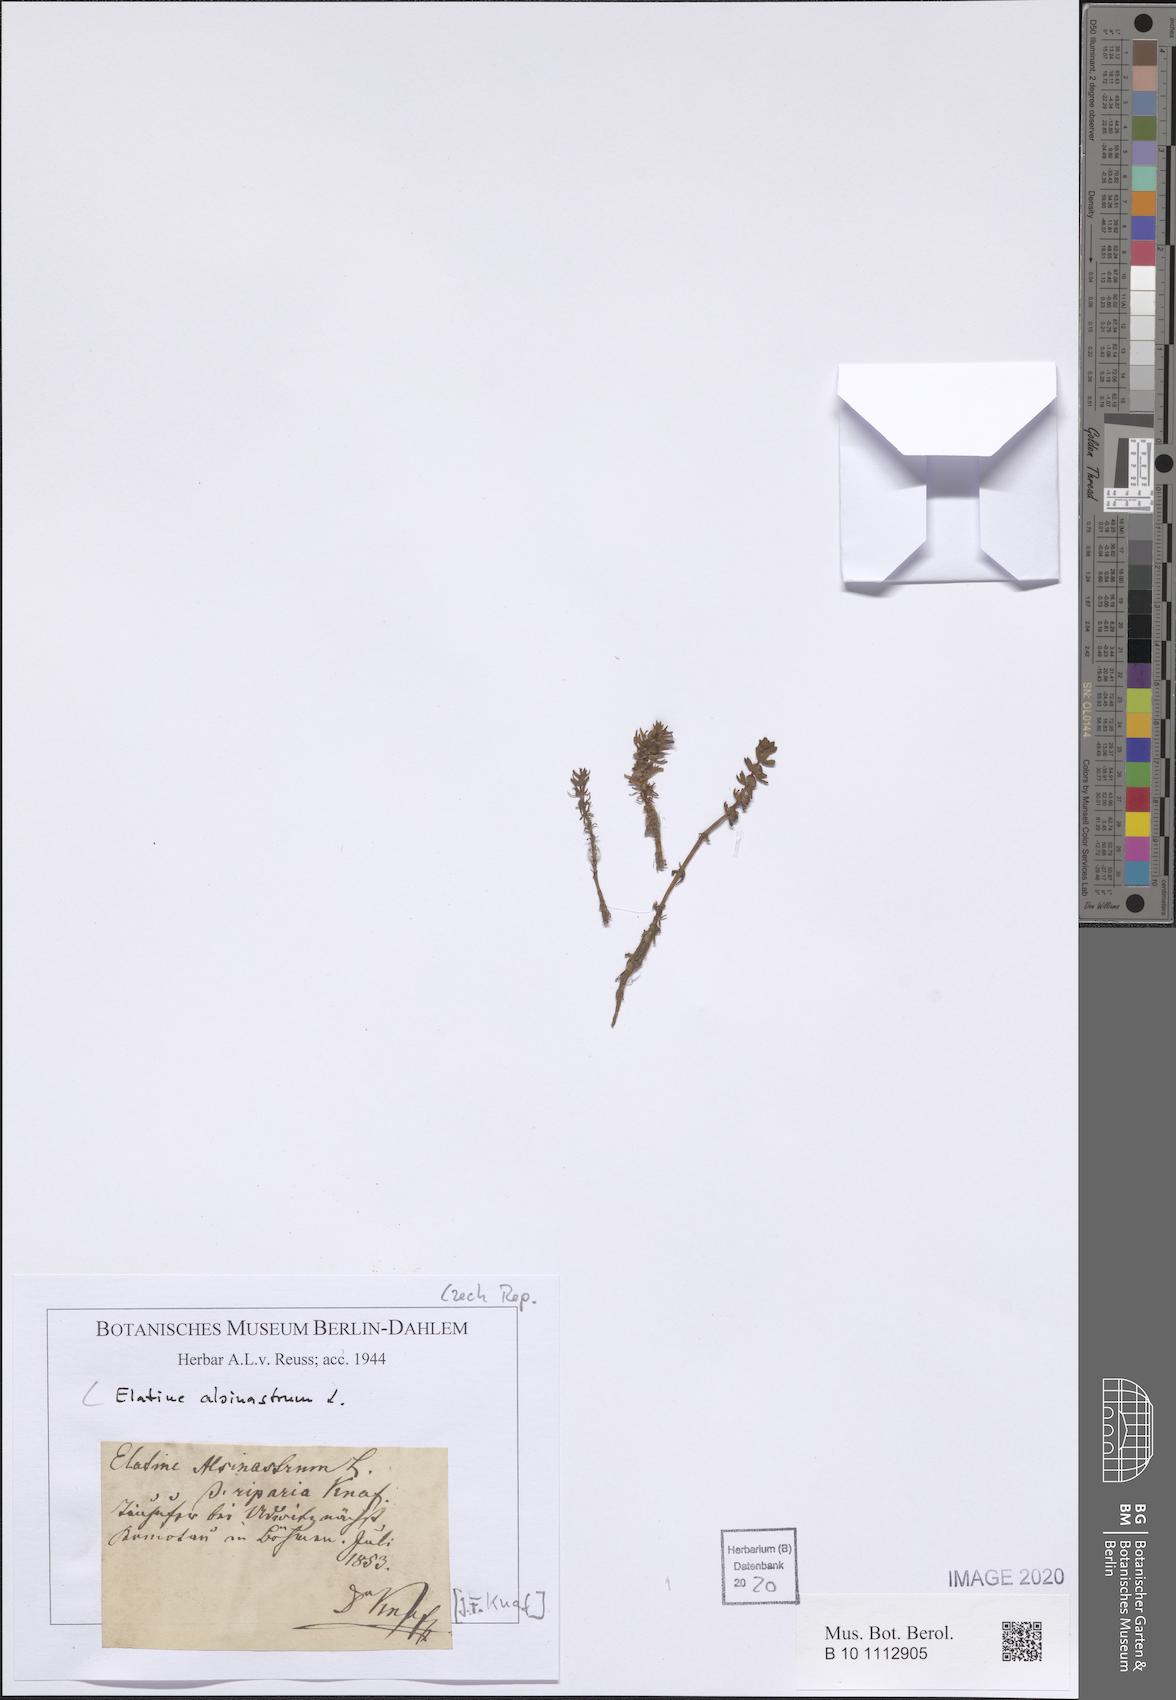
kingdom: Plantae
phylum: Tracheophyta
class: Magnoliopsida
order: Malpighiales
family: Elatinaceae
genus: Elatine
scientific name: Elatine alsinastrum
